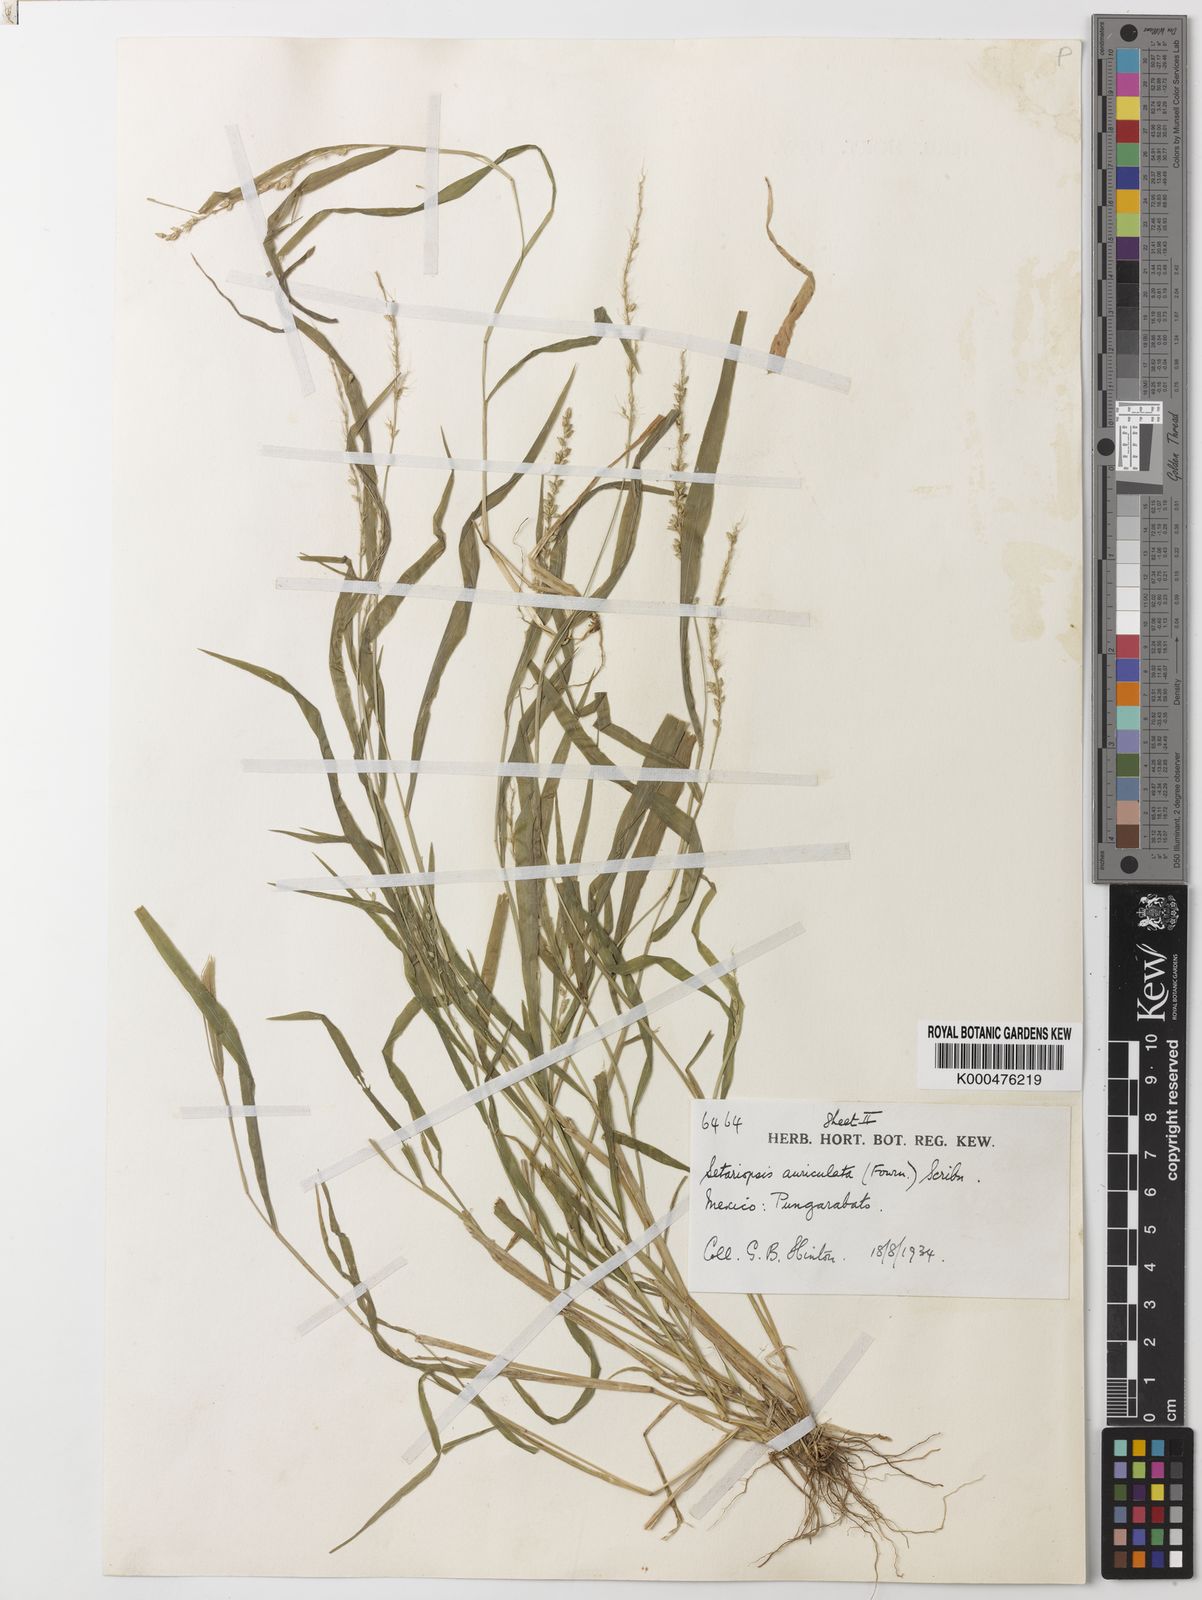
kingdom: Plantae
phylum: Tracheophyta
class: Liliopsida
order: Poales
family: Poaceae
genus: Setariopsis
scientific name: Setariopsis auriculata
